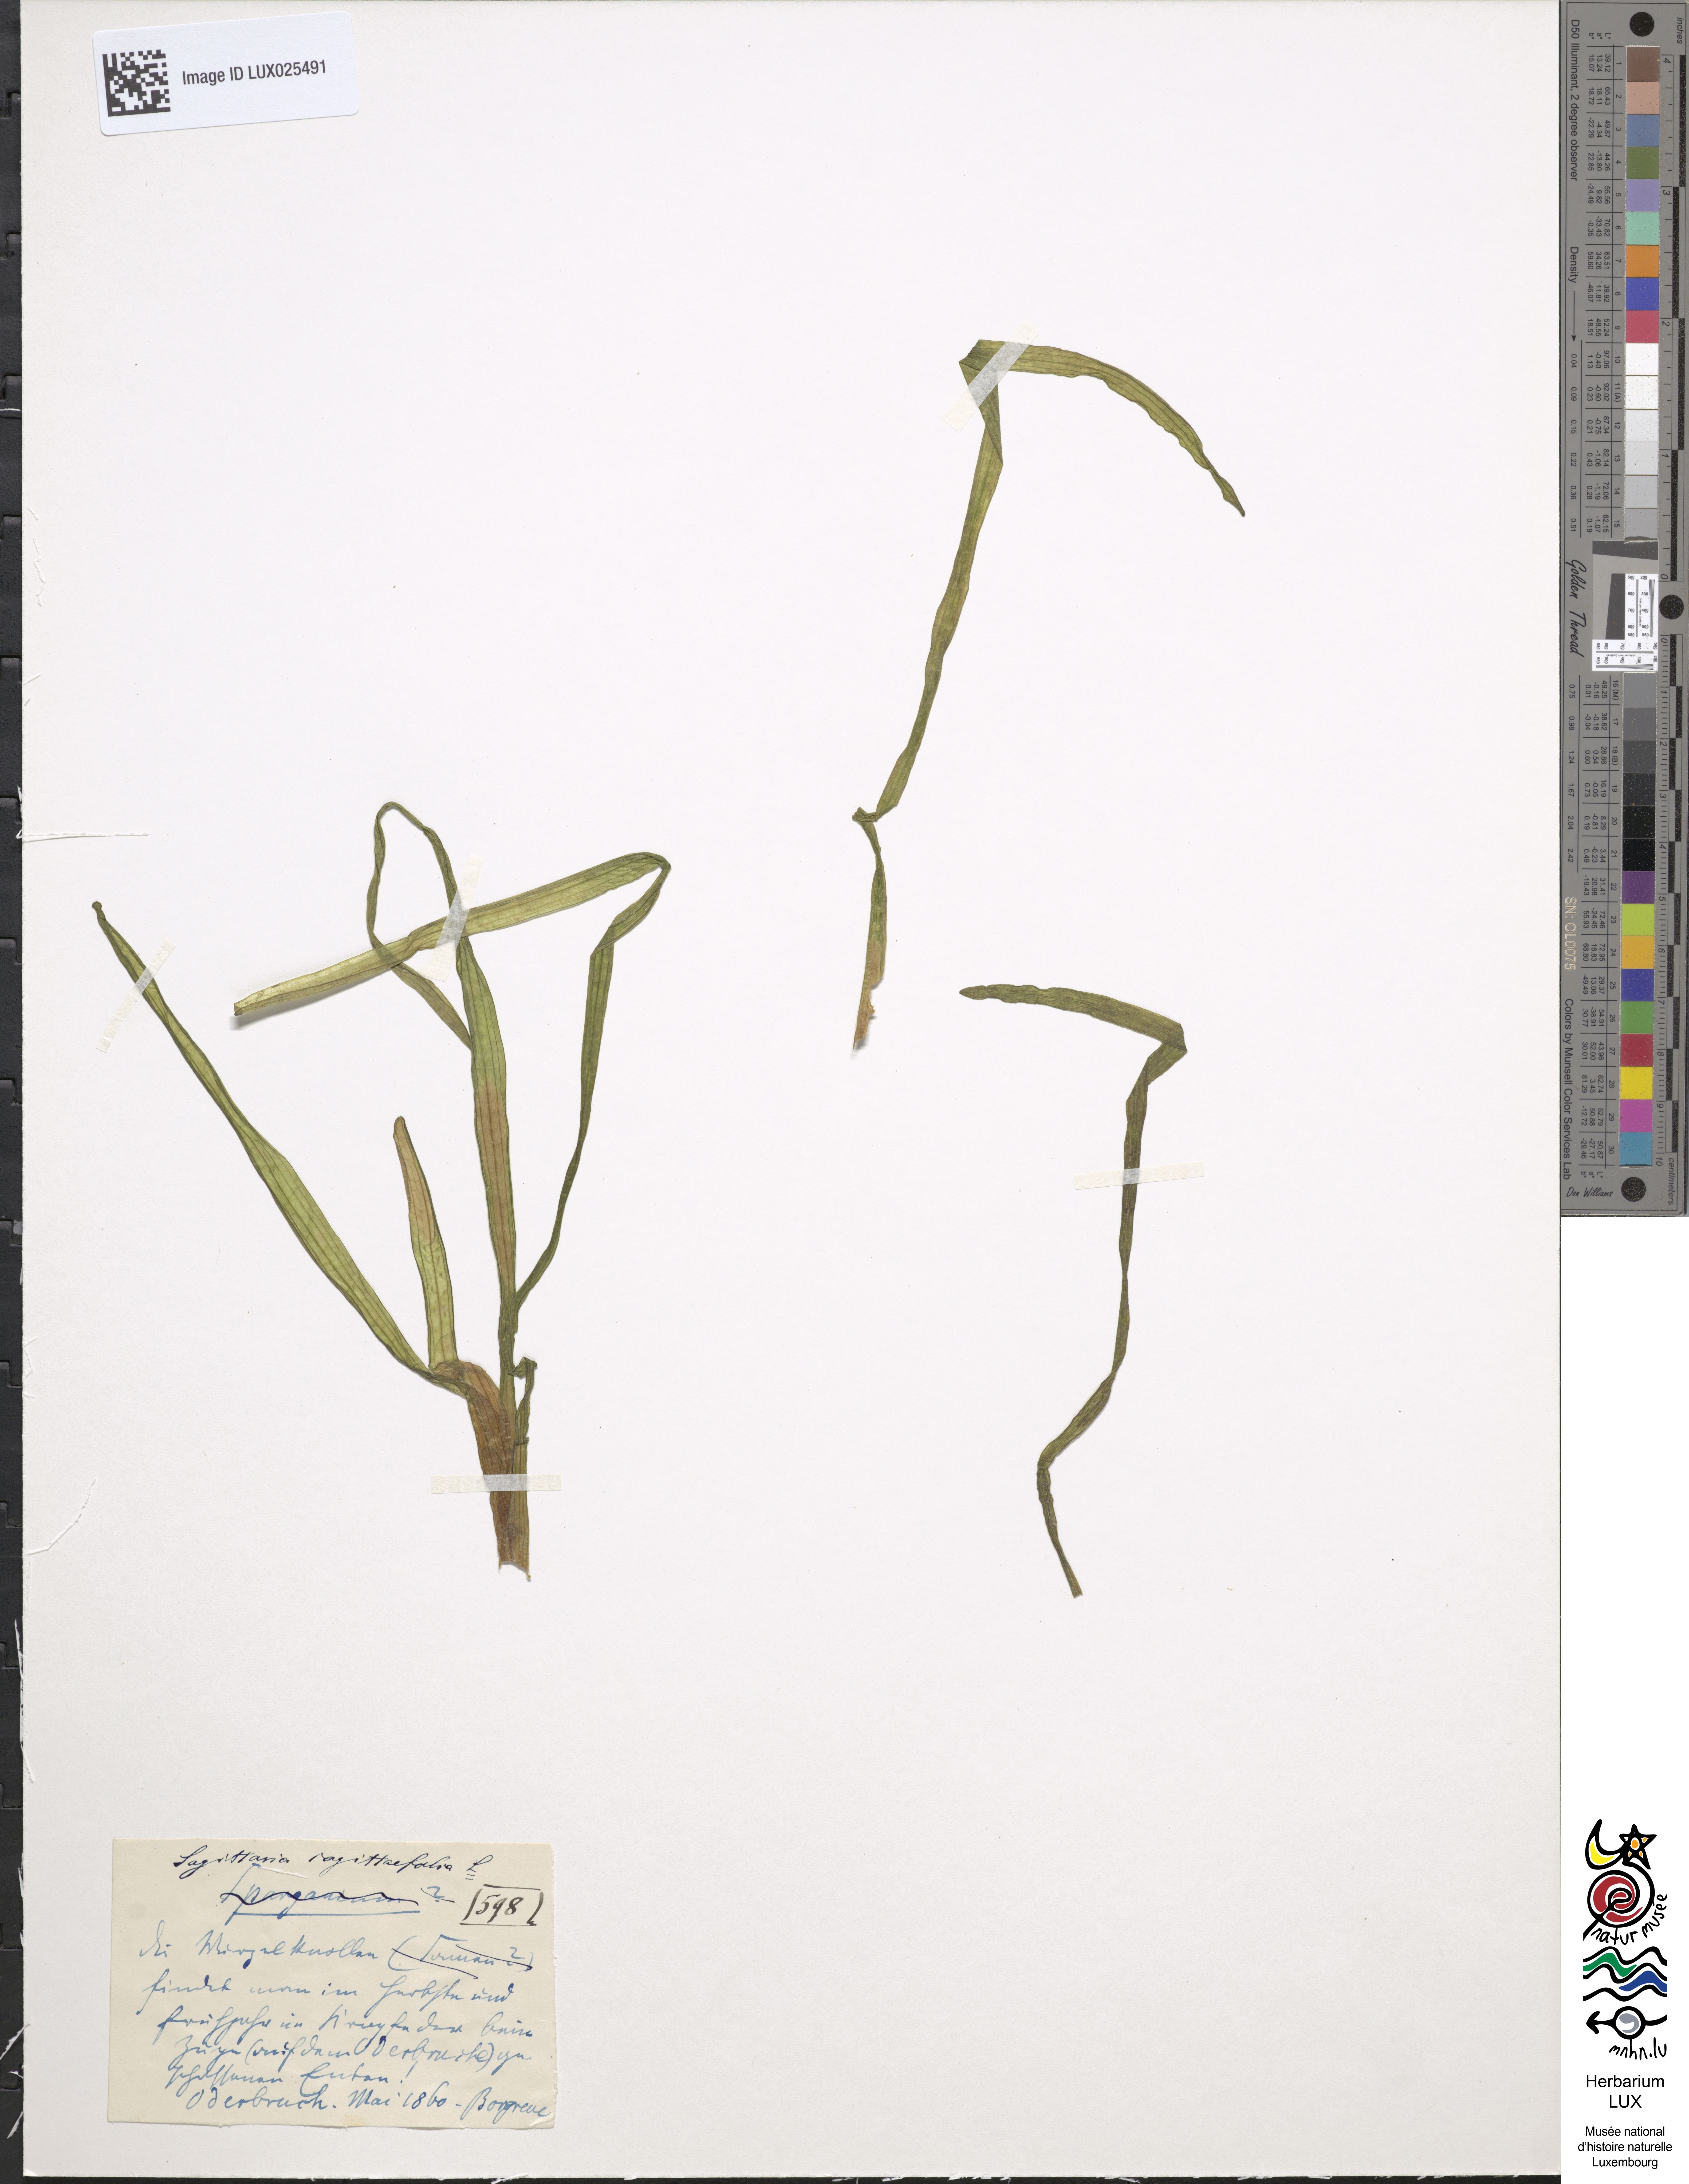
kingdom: Plantae
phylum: Tracheophyta
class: Liliopsida
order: Alismatales
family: Alismataceae
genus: Sagittaria
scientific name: Sagittaria sagittifolia
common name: Arrowhead
